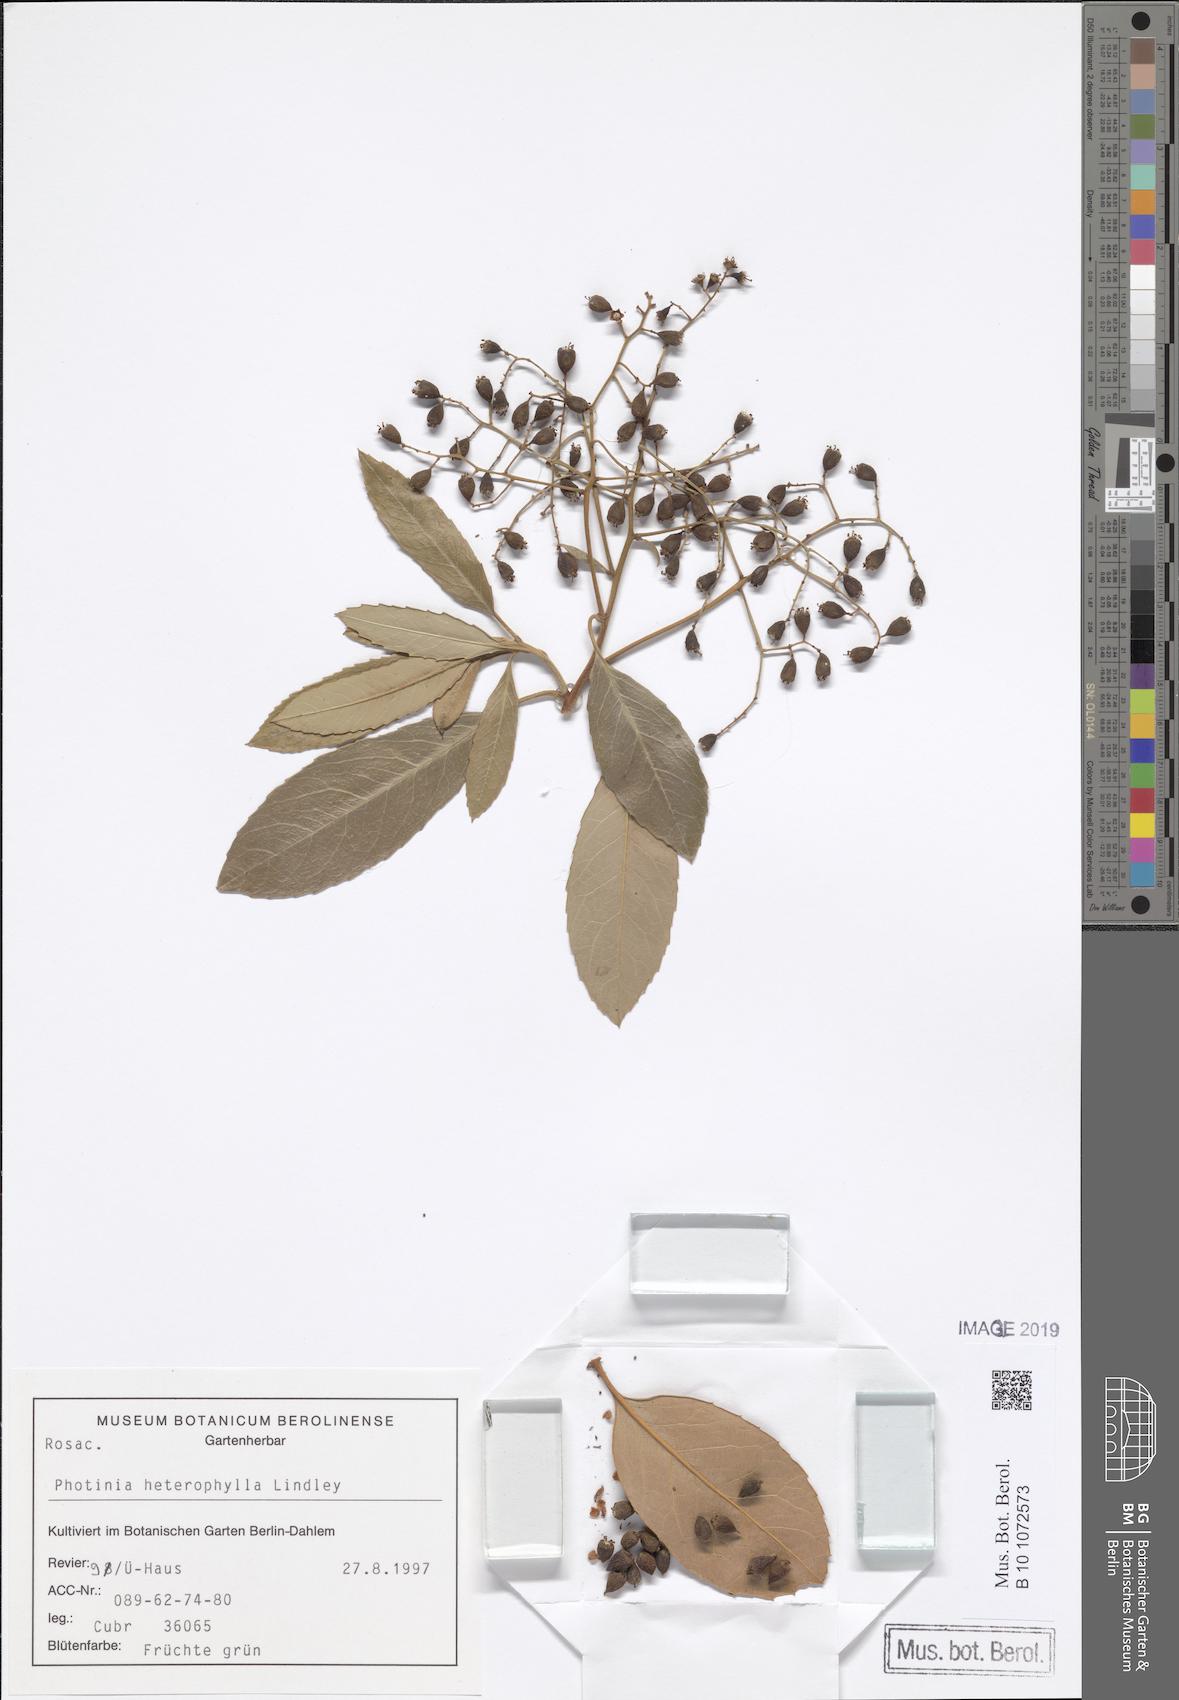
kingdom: Plantae
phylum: Tracheophyta
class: Magnoliopsida
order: Rosales
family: Rosaceae
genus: Heteromeles
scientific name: Heteromeles arbutifolia
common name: California-holly
